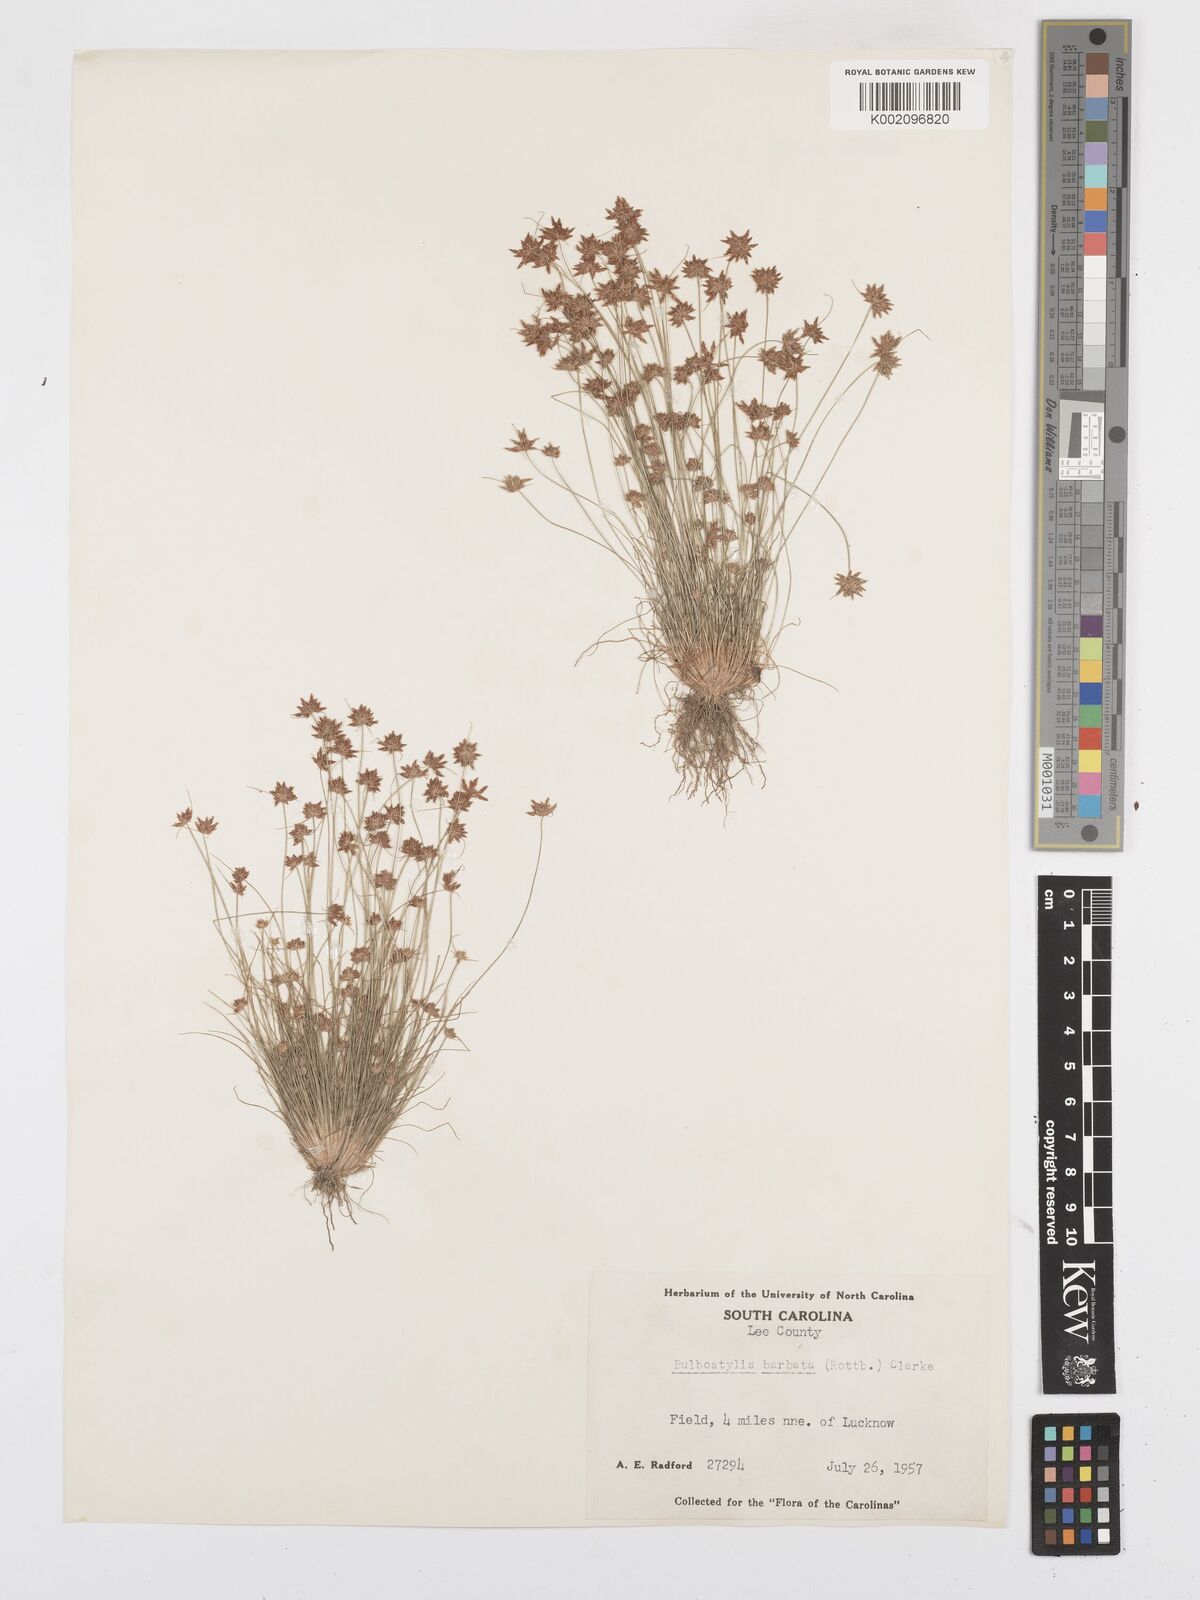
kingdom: Plantae
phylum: Tracheophyta
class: Liliopsida
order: Poales
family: Cyperaceae
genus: Bulbostylis
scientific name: Bulbostylis barbata
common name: Watergrass
